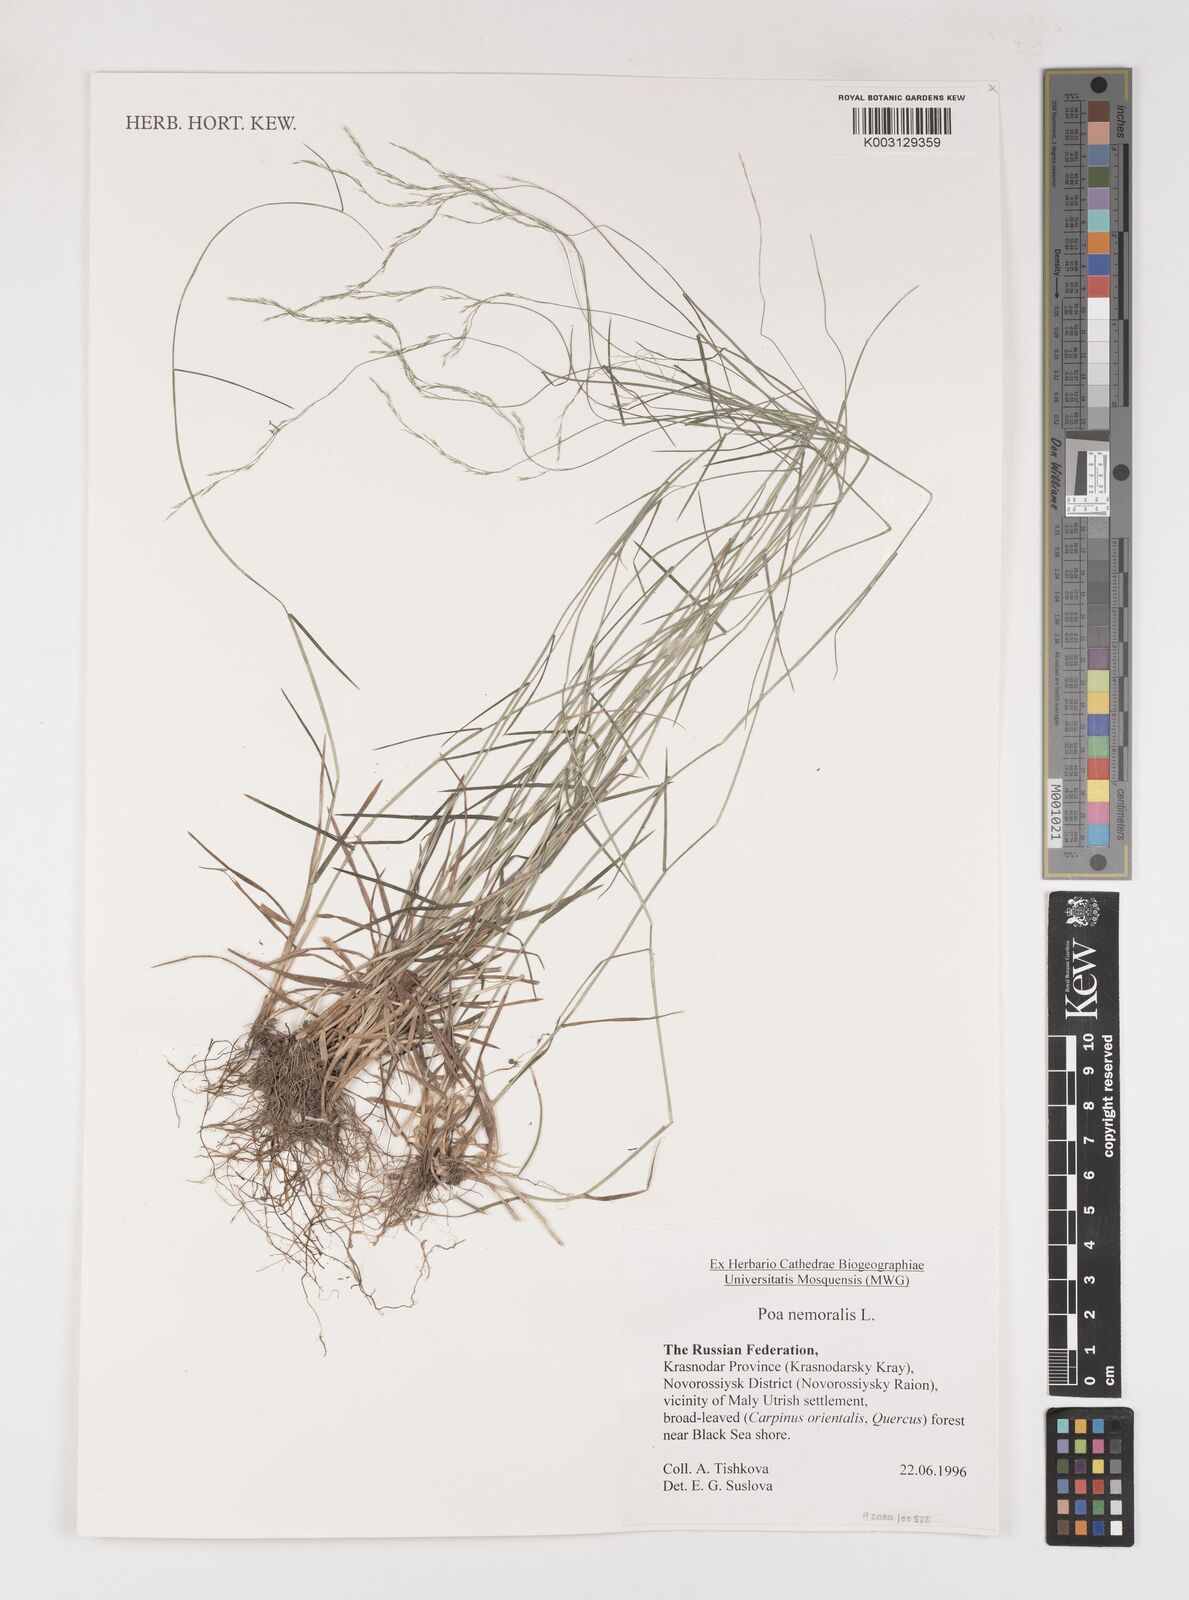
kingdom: Plantae
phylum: Tracheophyta
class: Liliopsida
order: Poales
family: Poaceae
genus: Poa
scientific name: Poa nemoralis
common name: Wood bluegrass
